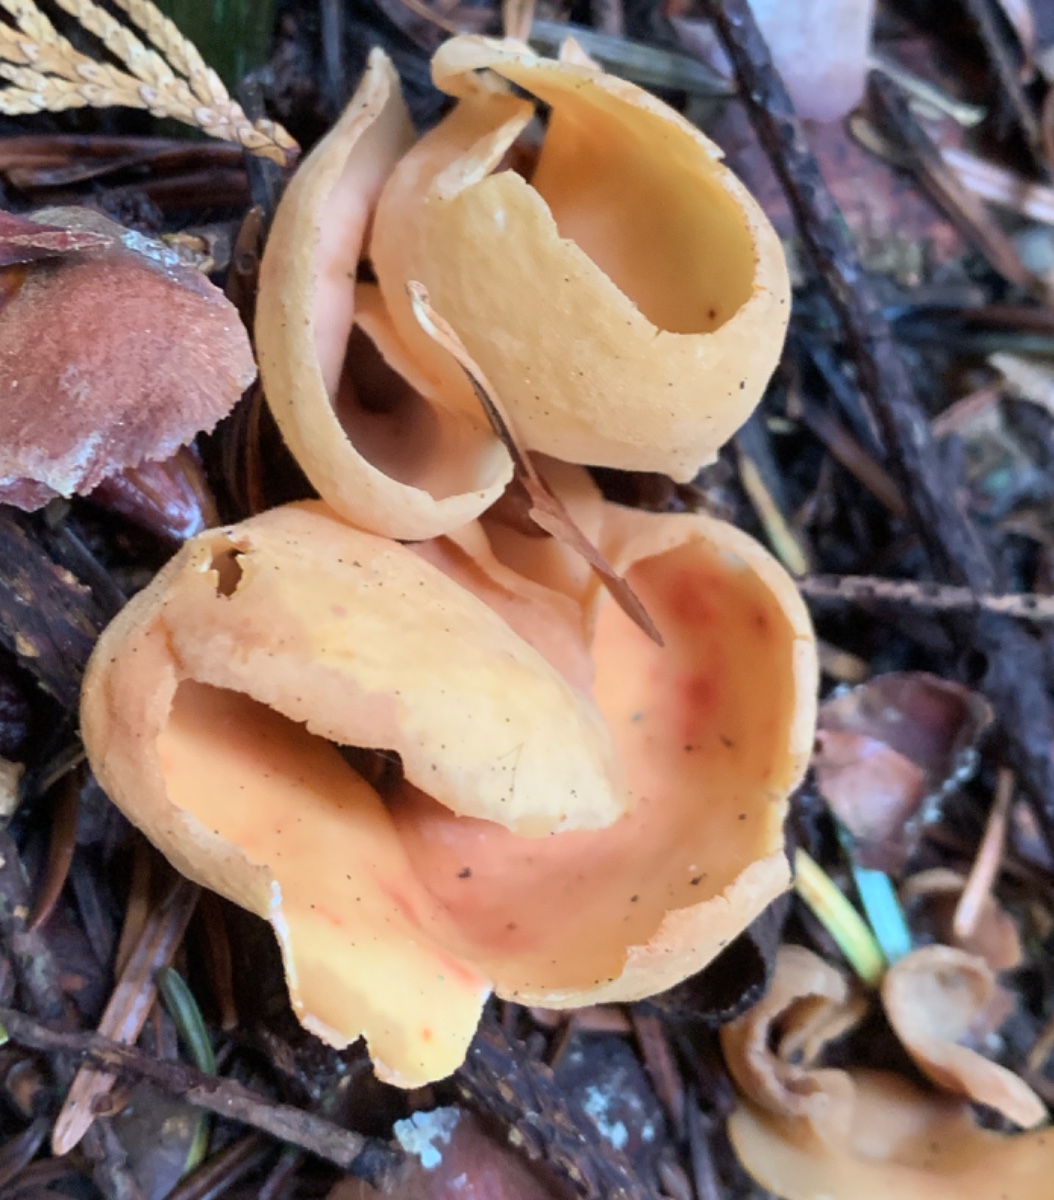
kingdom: Fungi
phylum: Ascomycota
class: Pezizomycetes
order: Pezizales
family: Otideaceae
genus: Otidea
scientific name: Otidea onotica
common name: æsel-ørebæger
